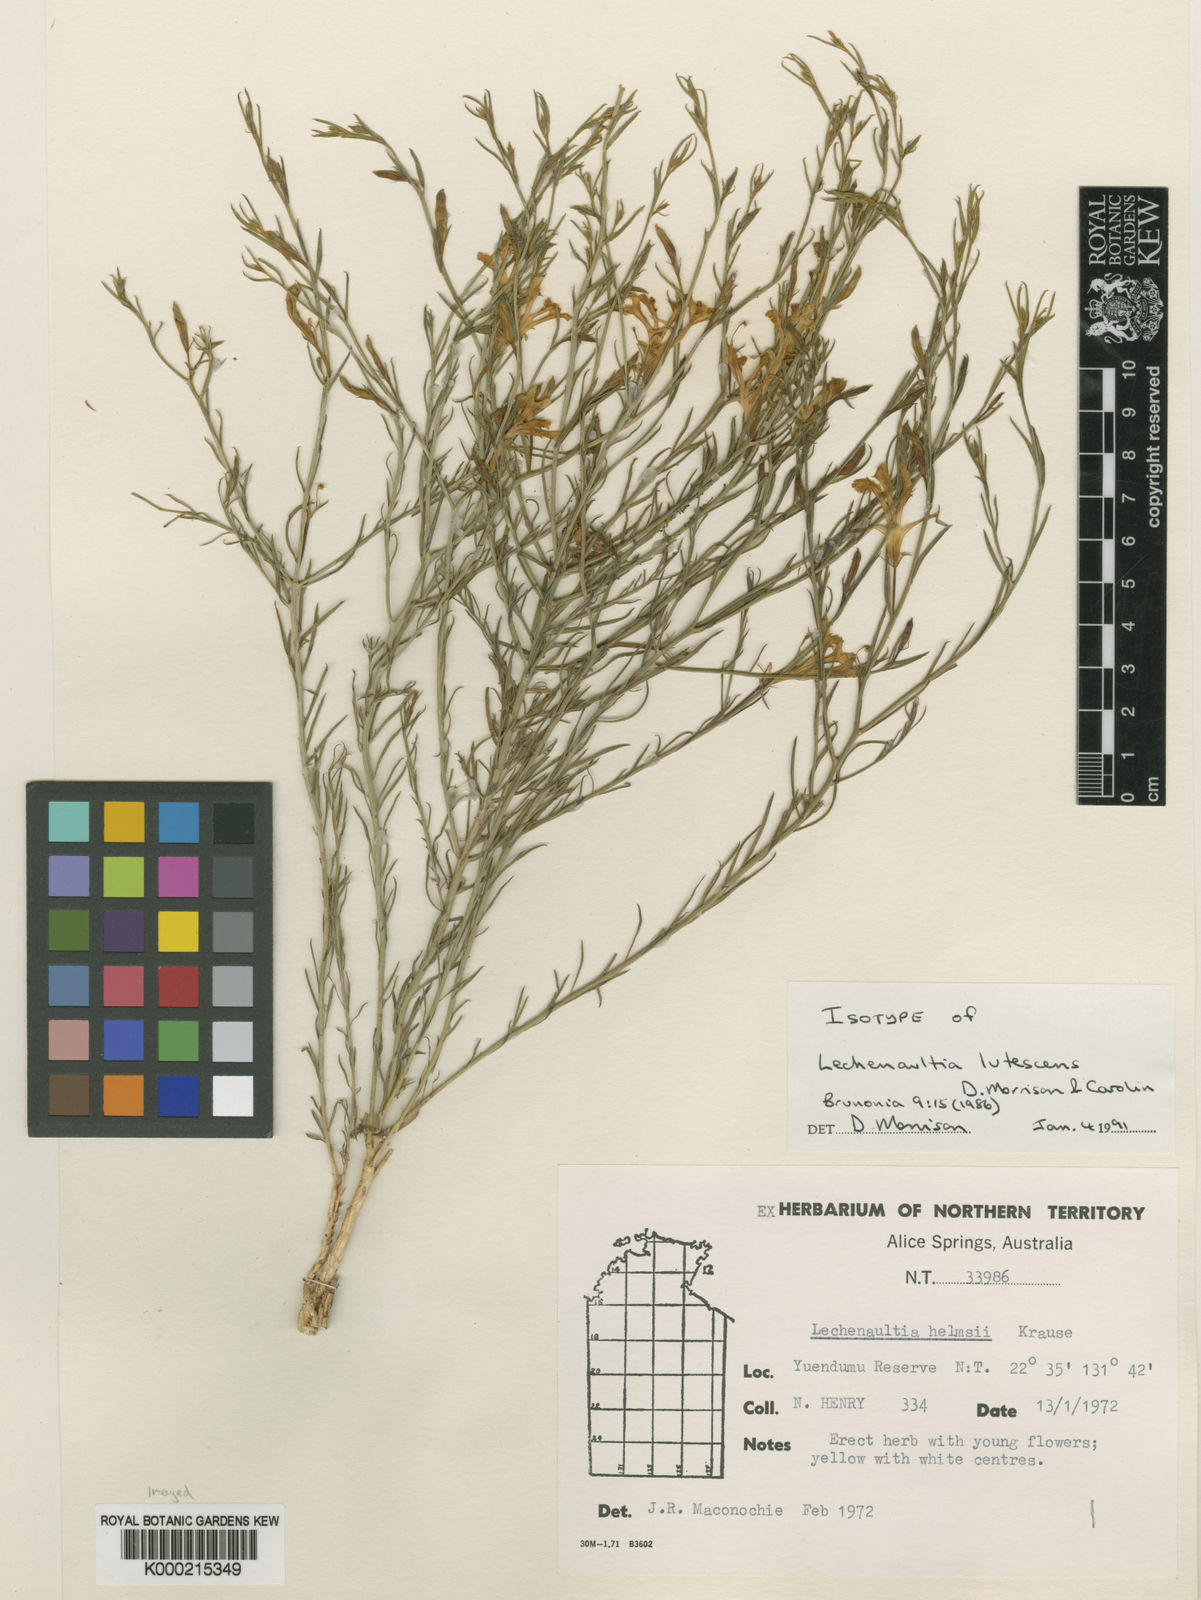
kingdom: Plantae
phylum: Tracheophyta
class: Magnoliopsida
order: Asterales
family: Goodeniaceae
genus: Leschenaultia
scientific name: Leschenaultia lutescens
